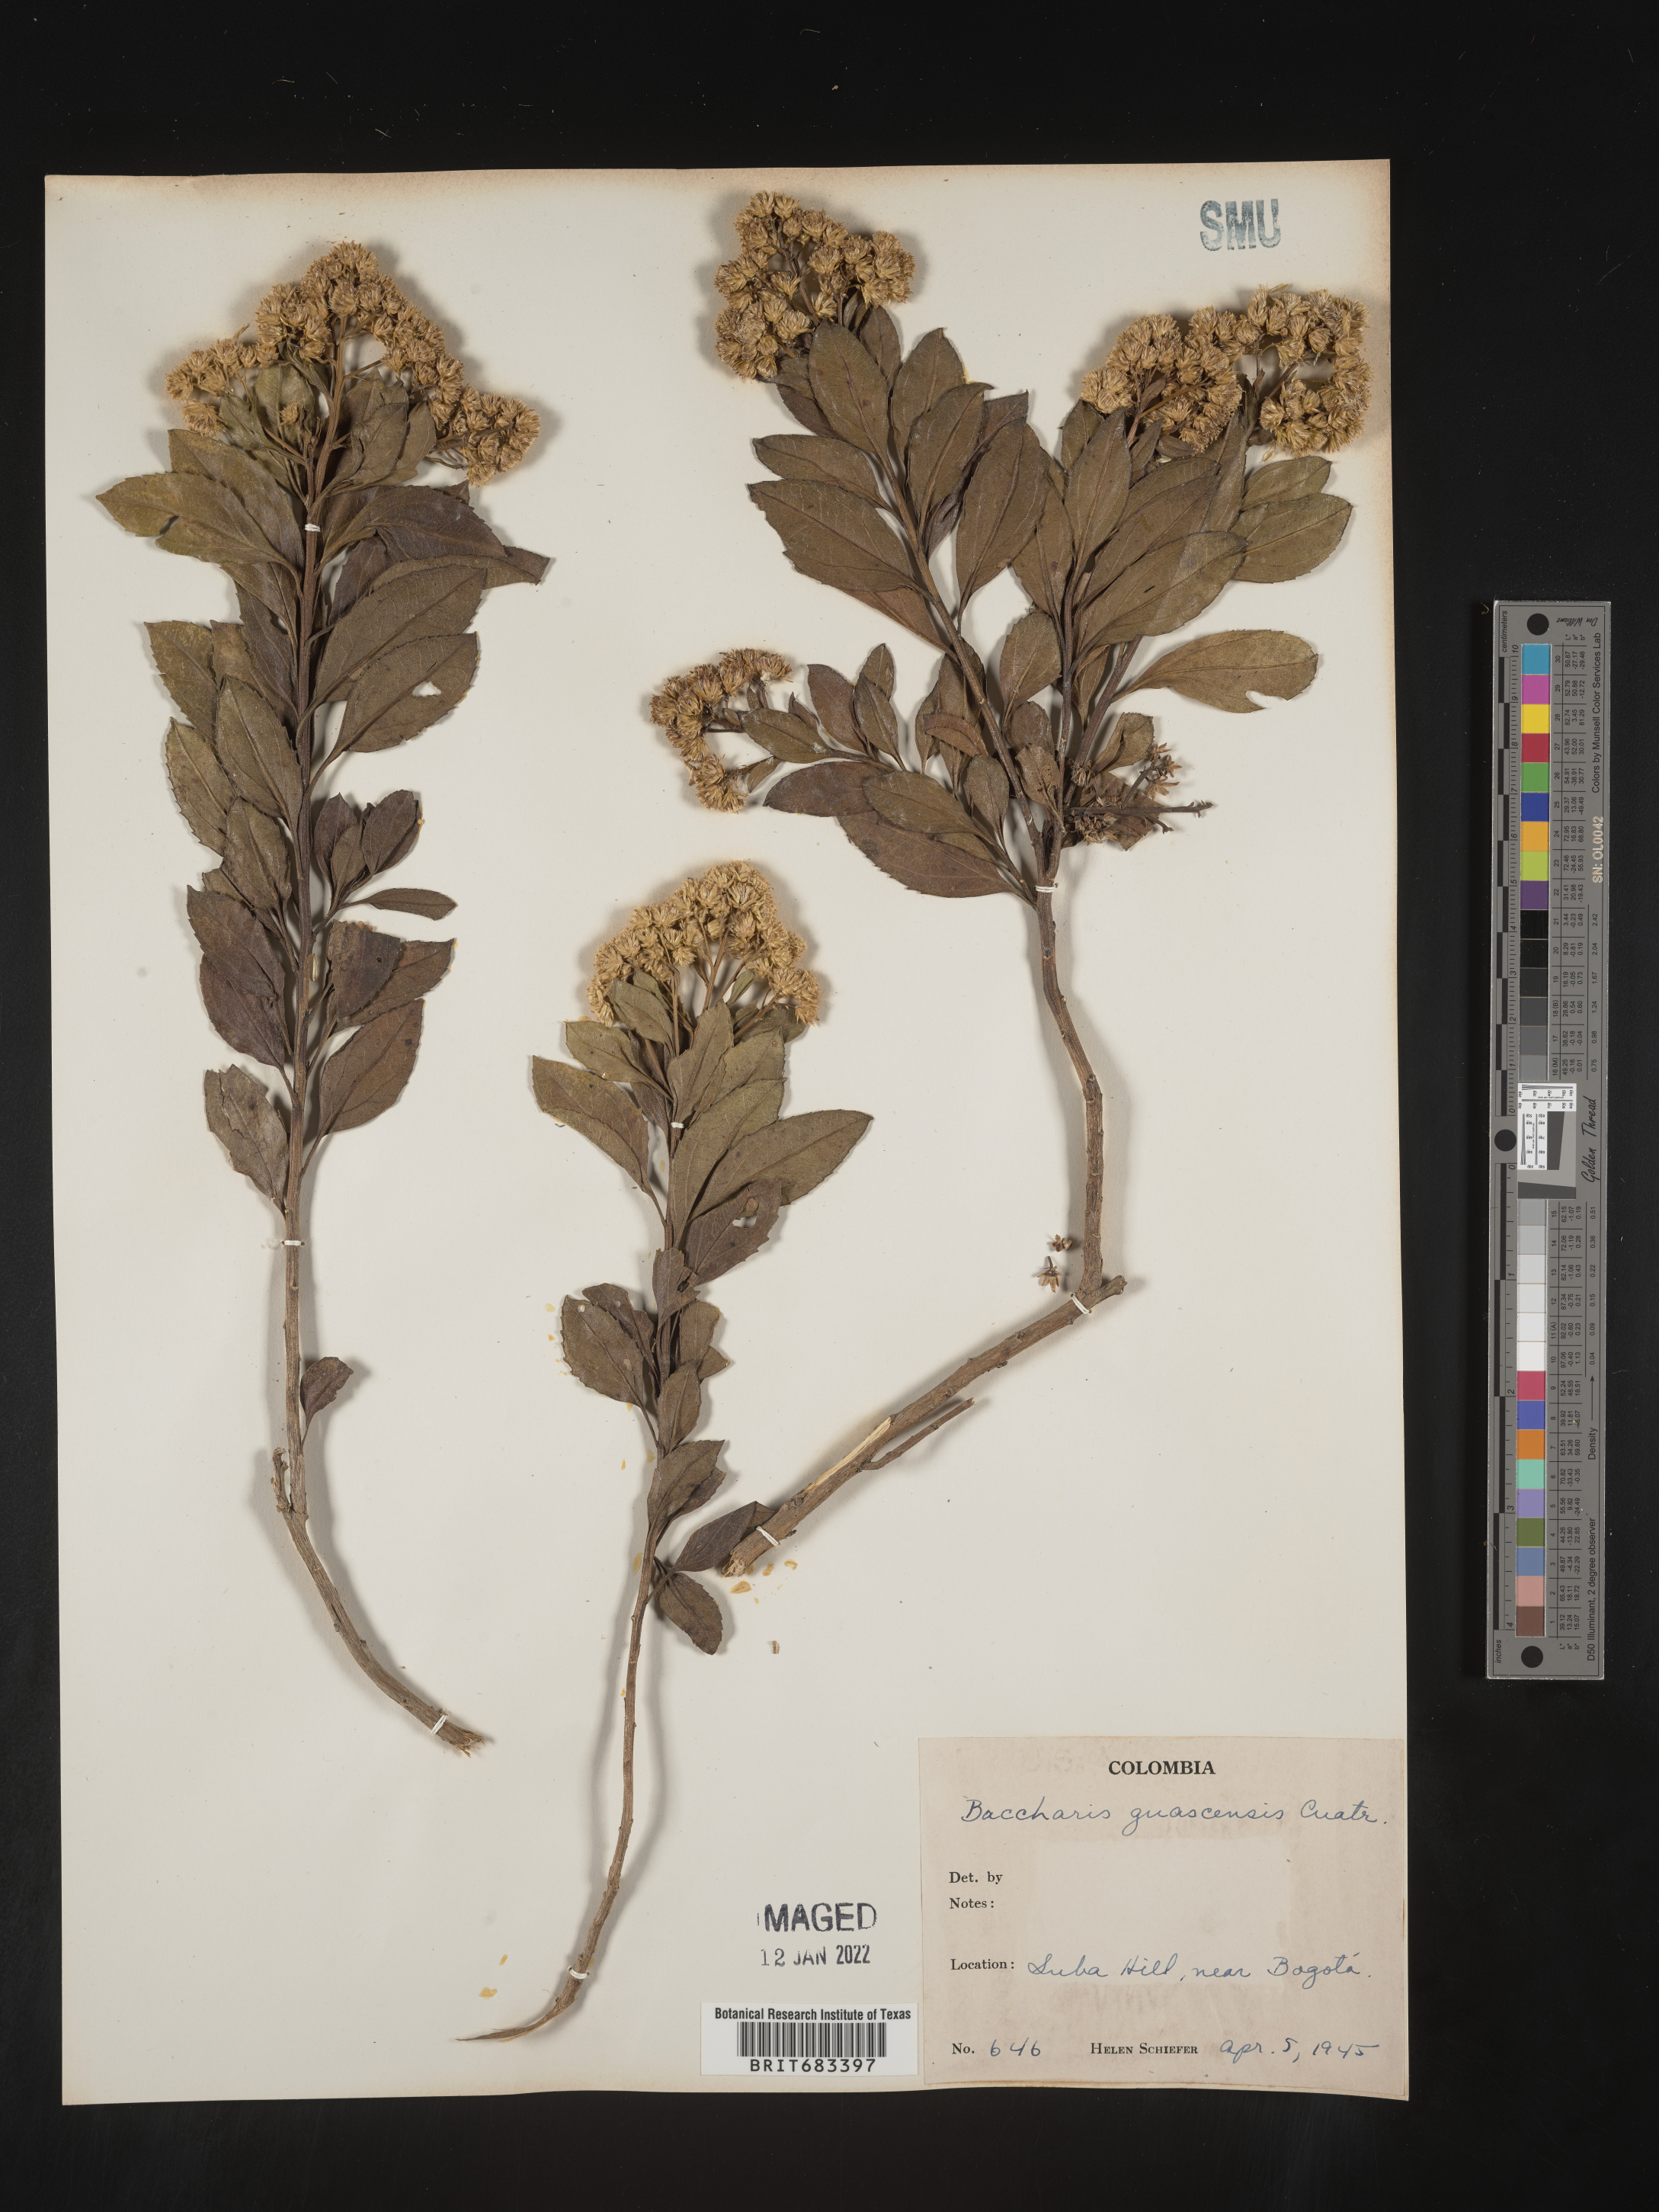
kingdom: Plantae
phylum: Tracheophyta
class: Magnoliopsida
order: Asterales
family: Asteraceae
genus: Baccharis
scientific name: Baccharis
